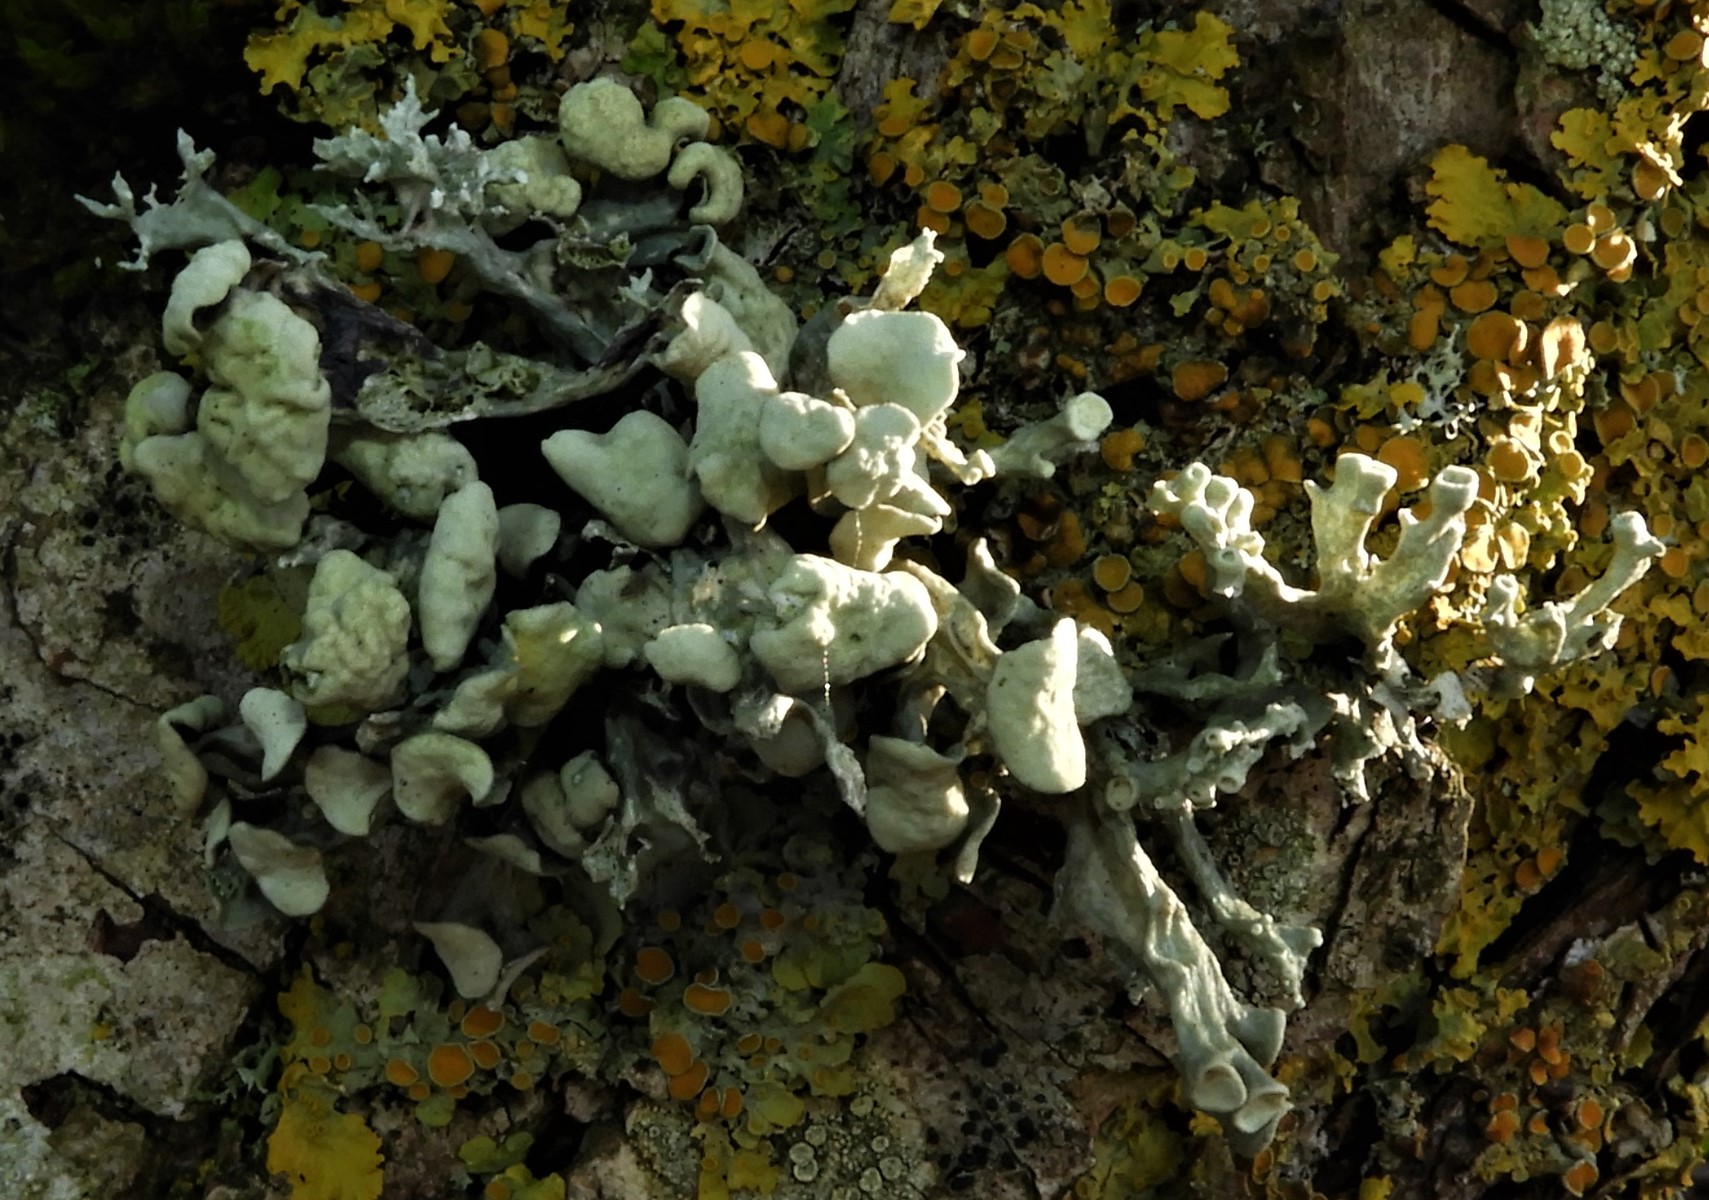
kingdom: Fungi
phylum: Ascomycota
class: Lecanoromycetes
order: Lecanorales
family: Ramalinaceae
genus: Ramalina
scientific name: Ramalina fastigiata
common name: tue-grenlav
